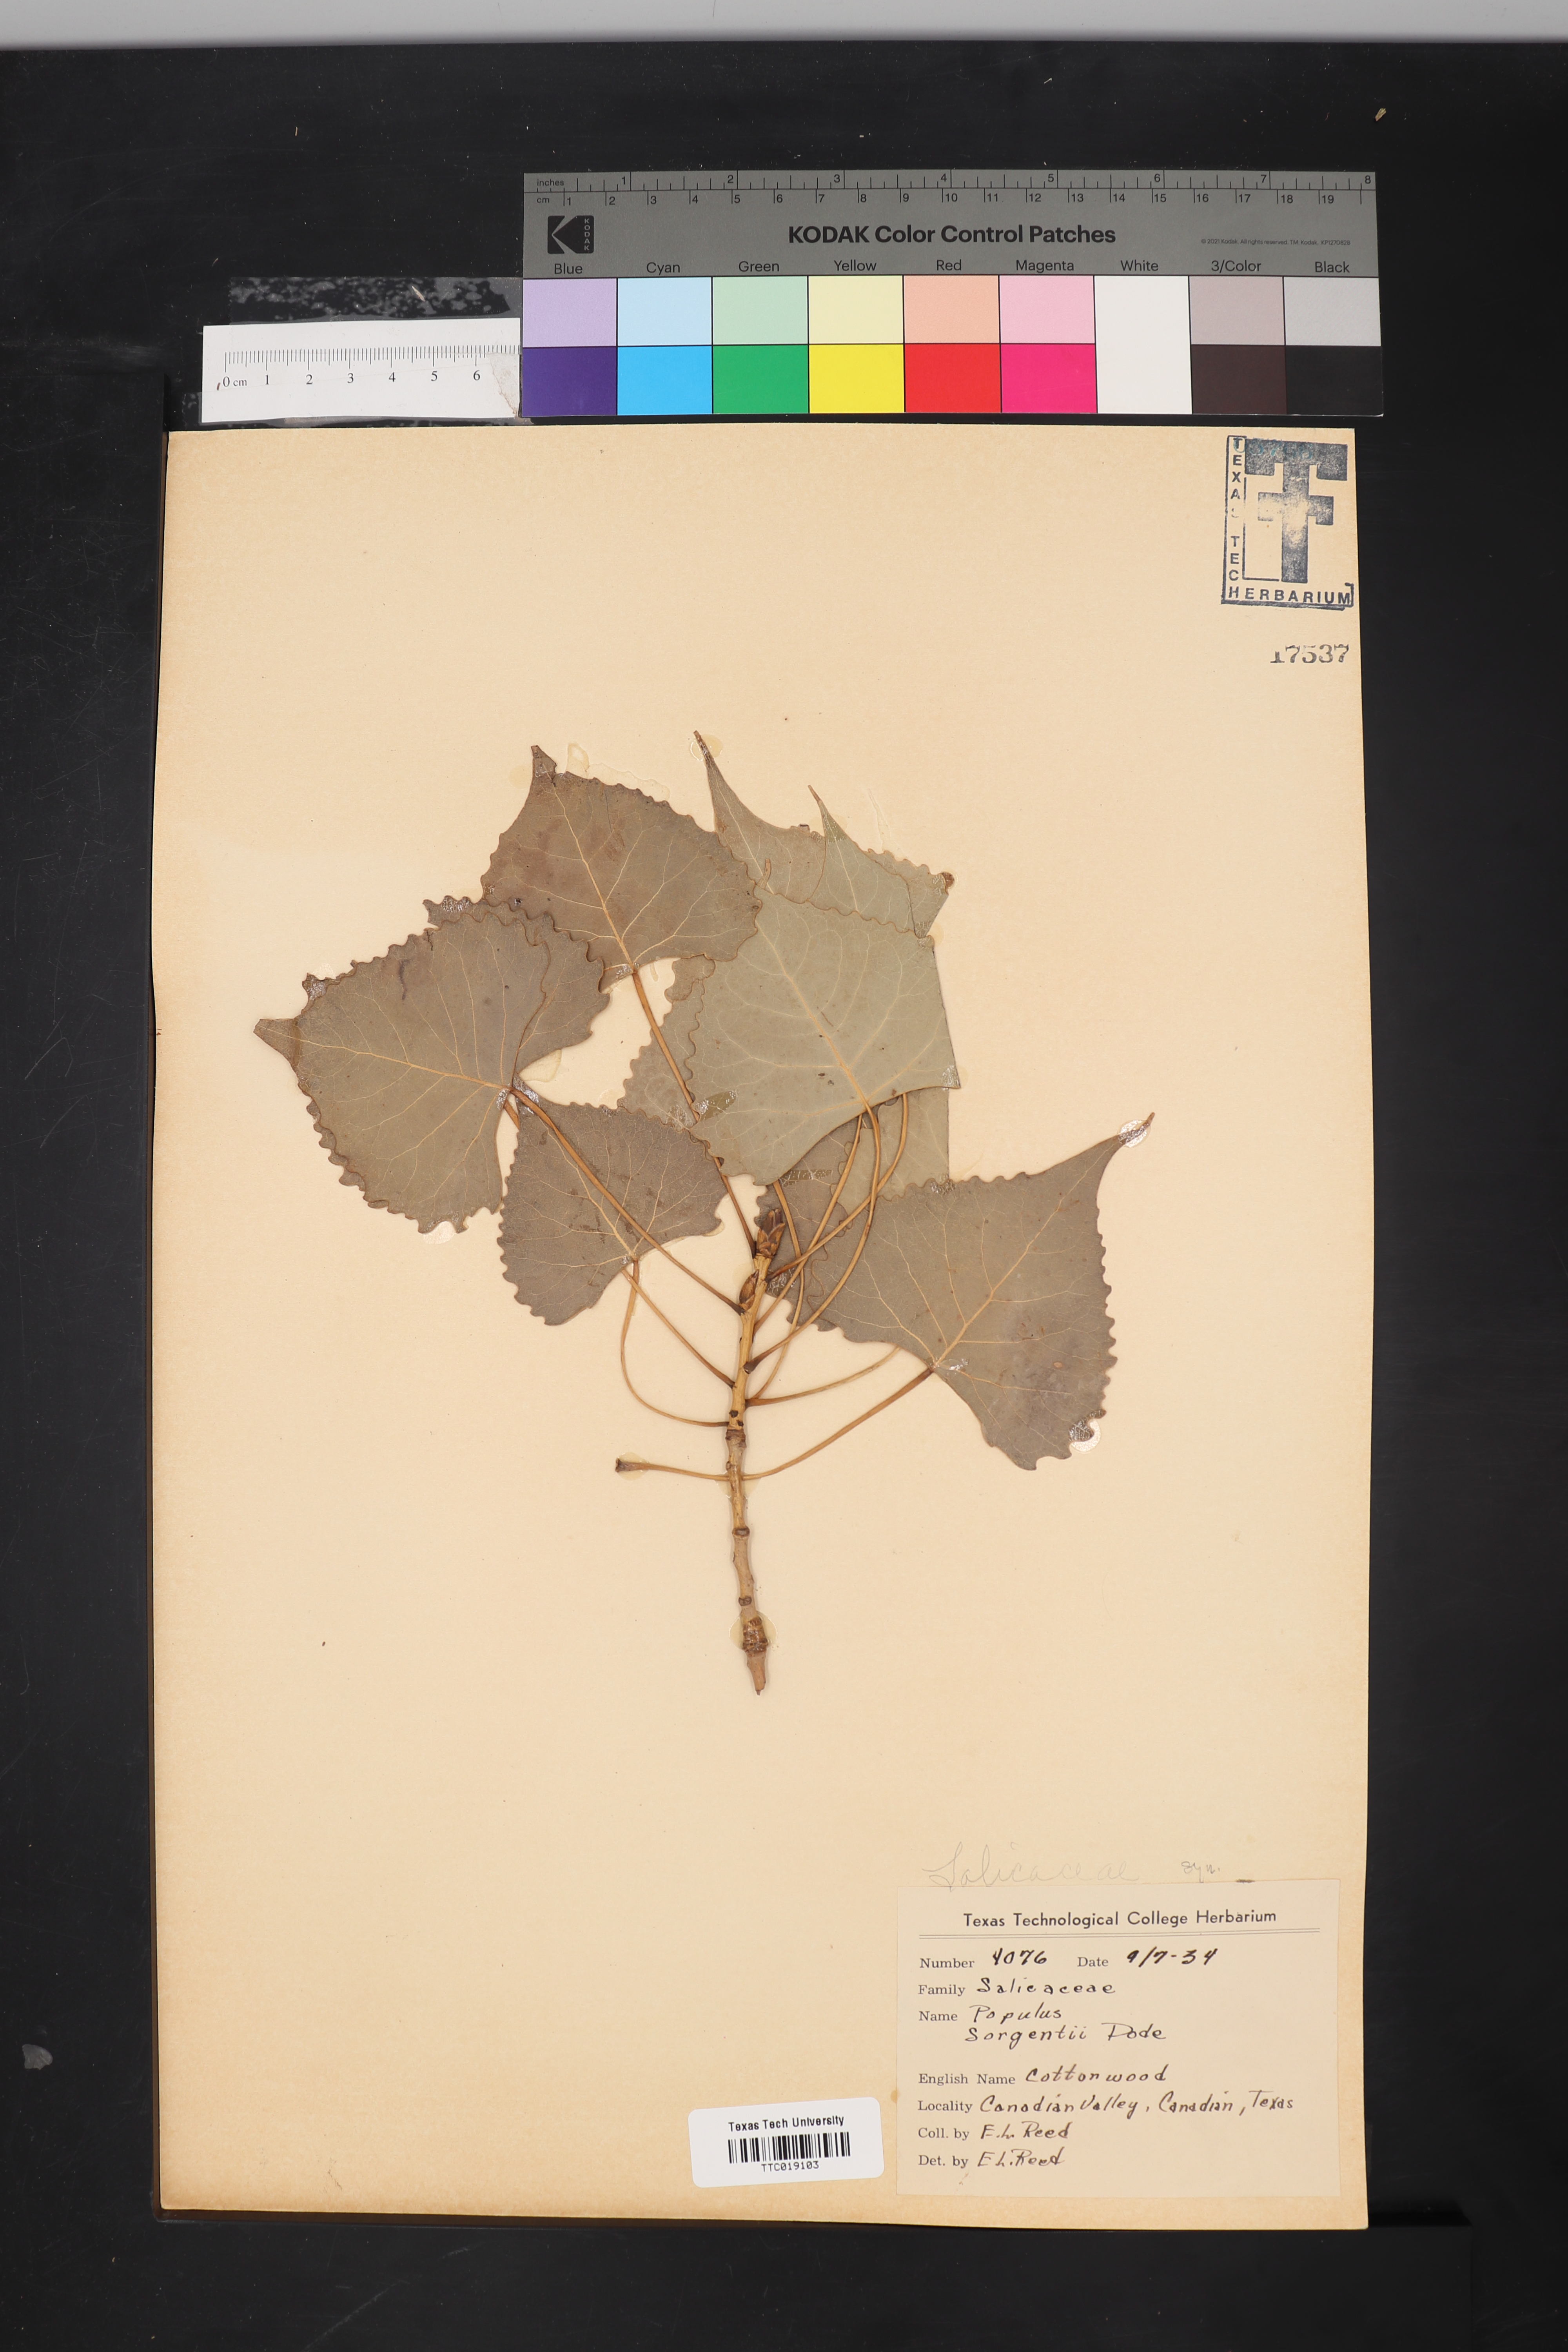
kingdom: Plantae
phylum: Tracheophyta
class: Magnoliopsida
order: Malpighiales
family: Salicaceae
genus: Populus
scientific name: Populus deltoides
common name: Eastern cottonwood
